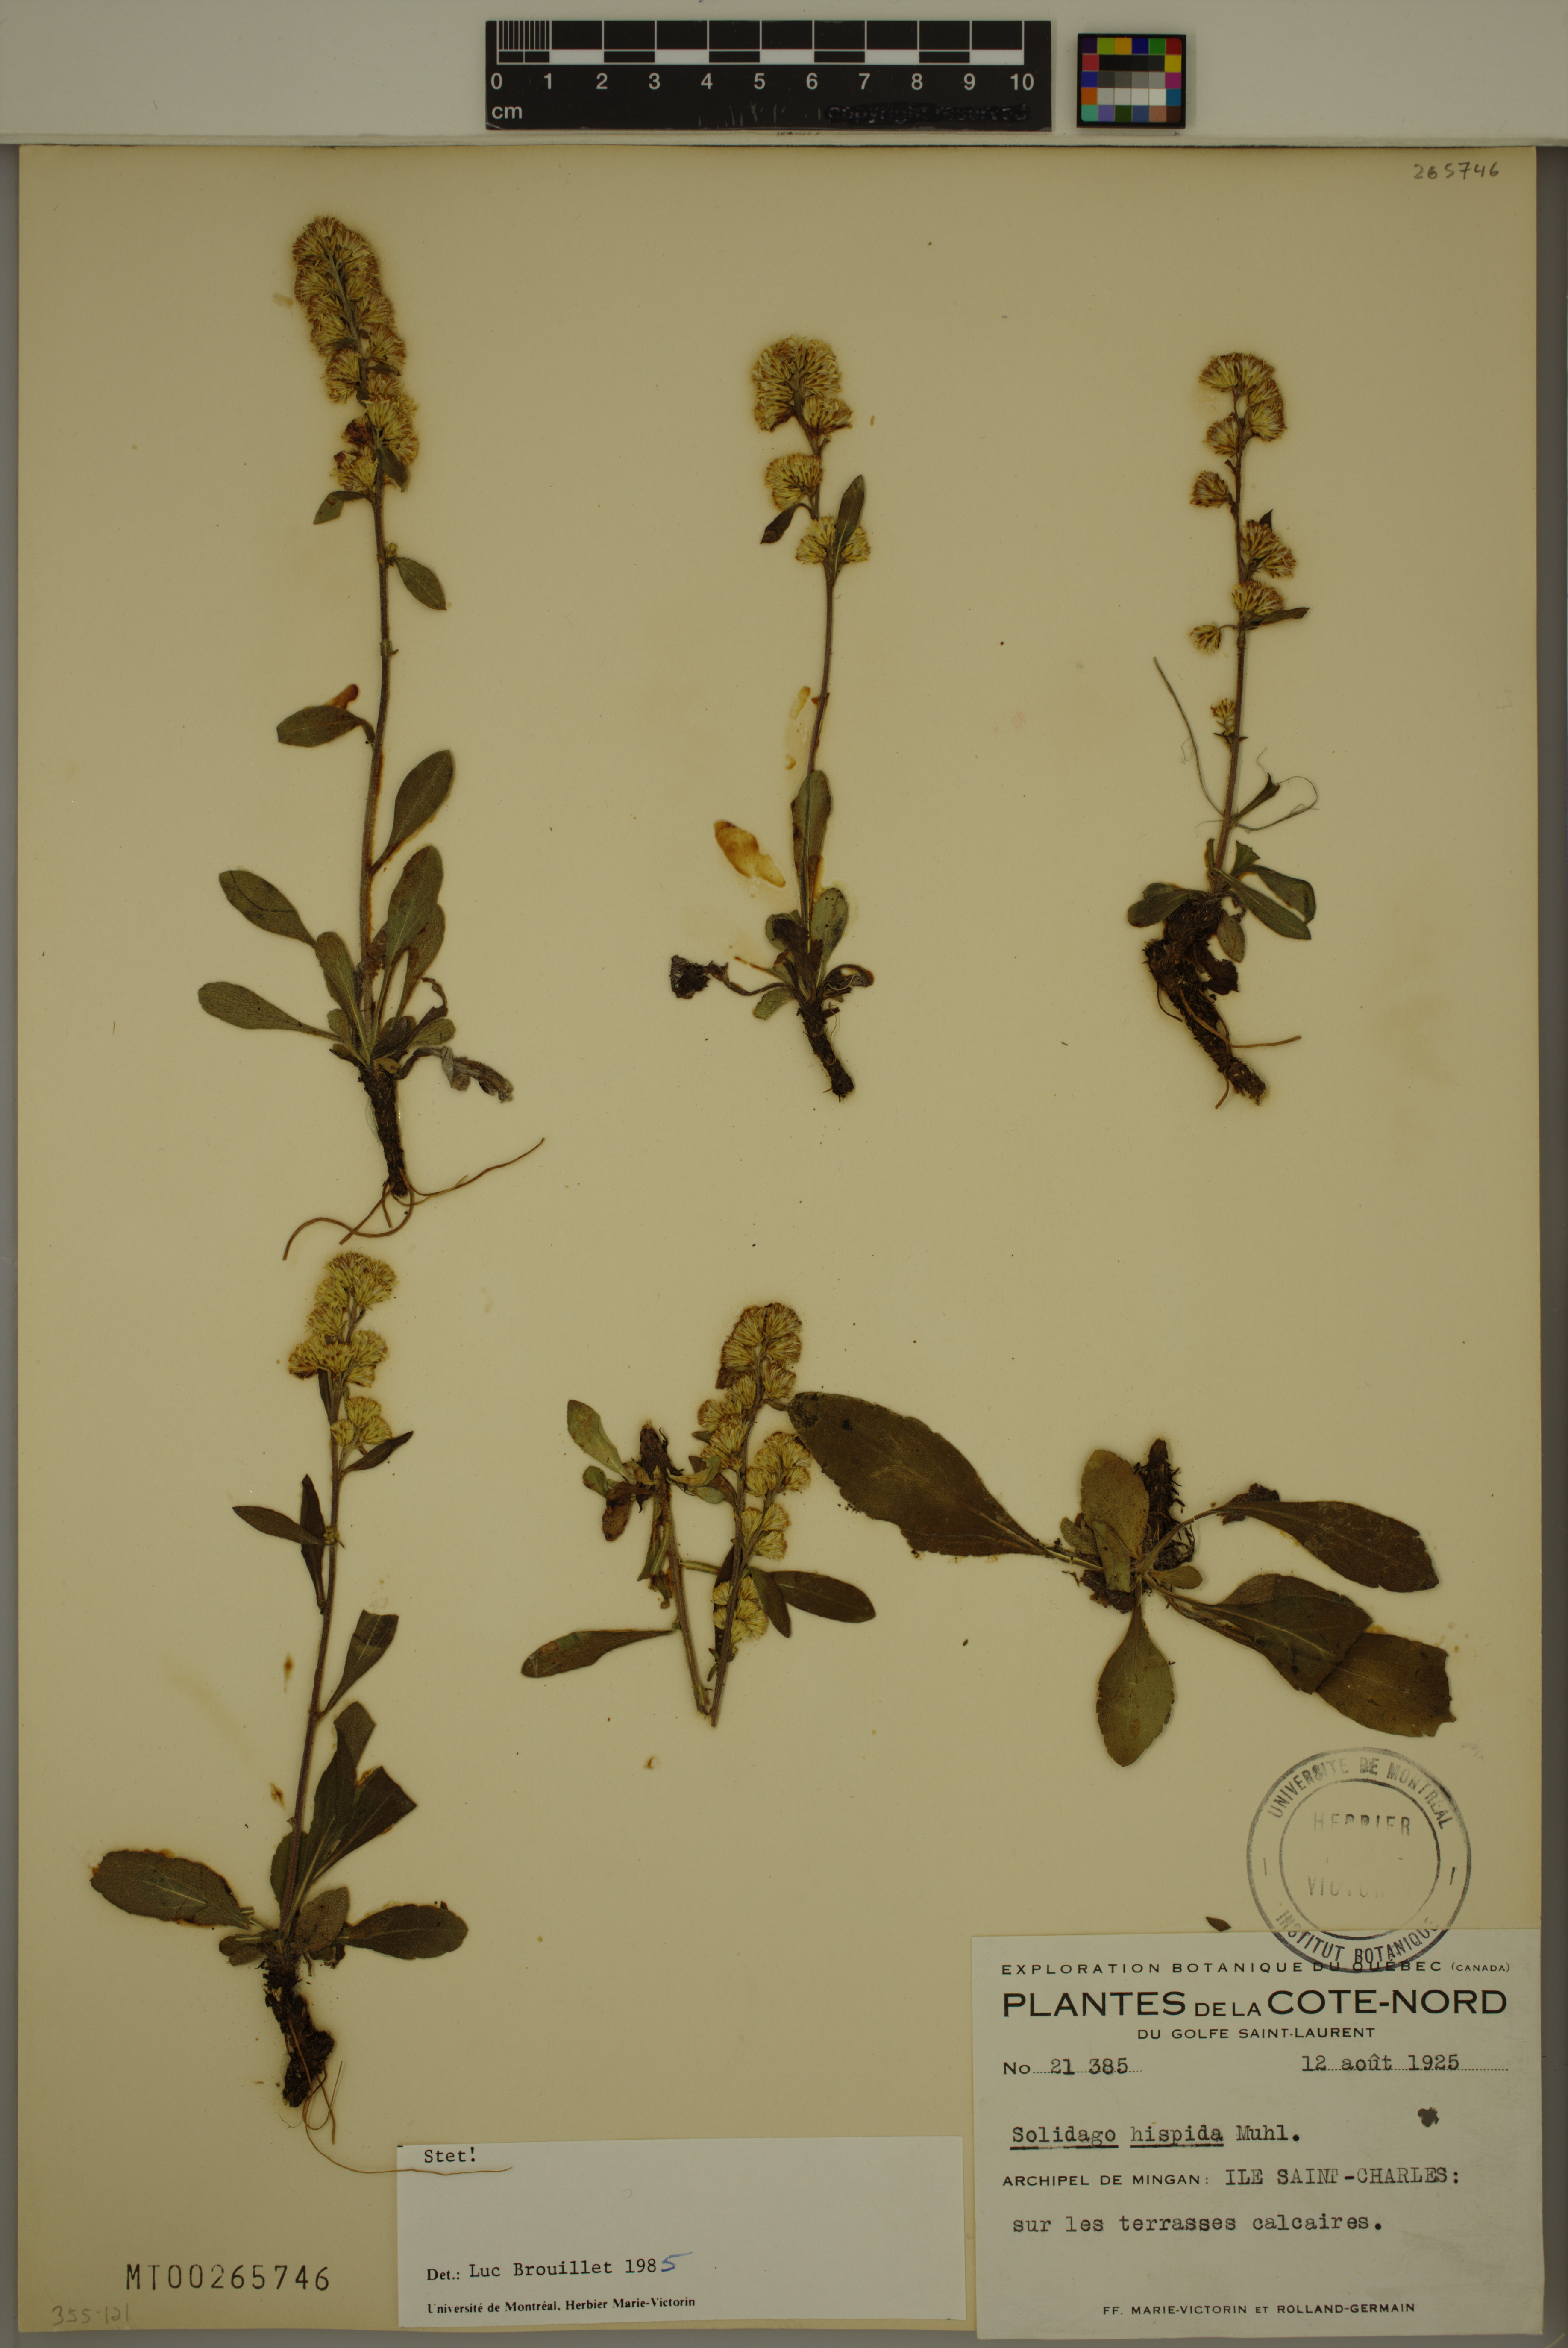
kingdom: Plantae
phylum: Tracheophyta
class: Magnoliopsida
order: Asterales
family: Asteraceae
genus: Solidago
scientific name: Solidago hispida
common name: Hairy goldenrod
